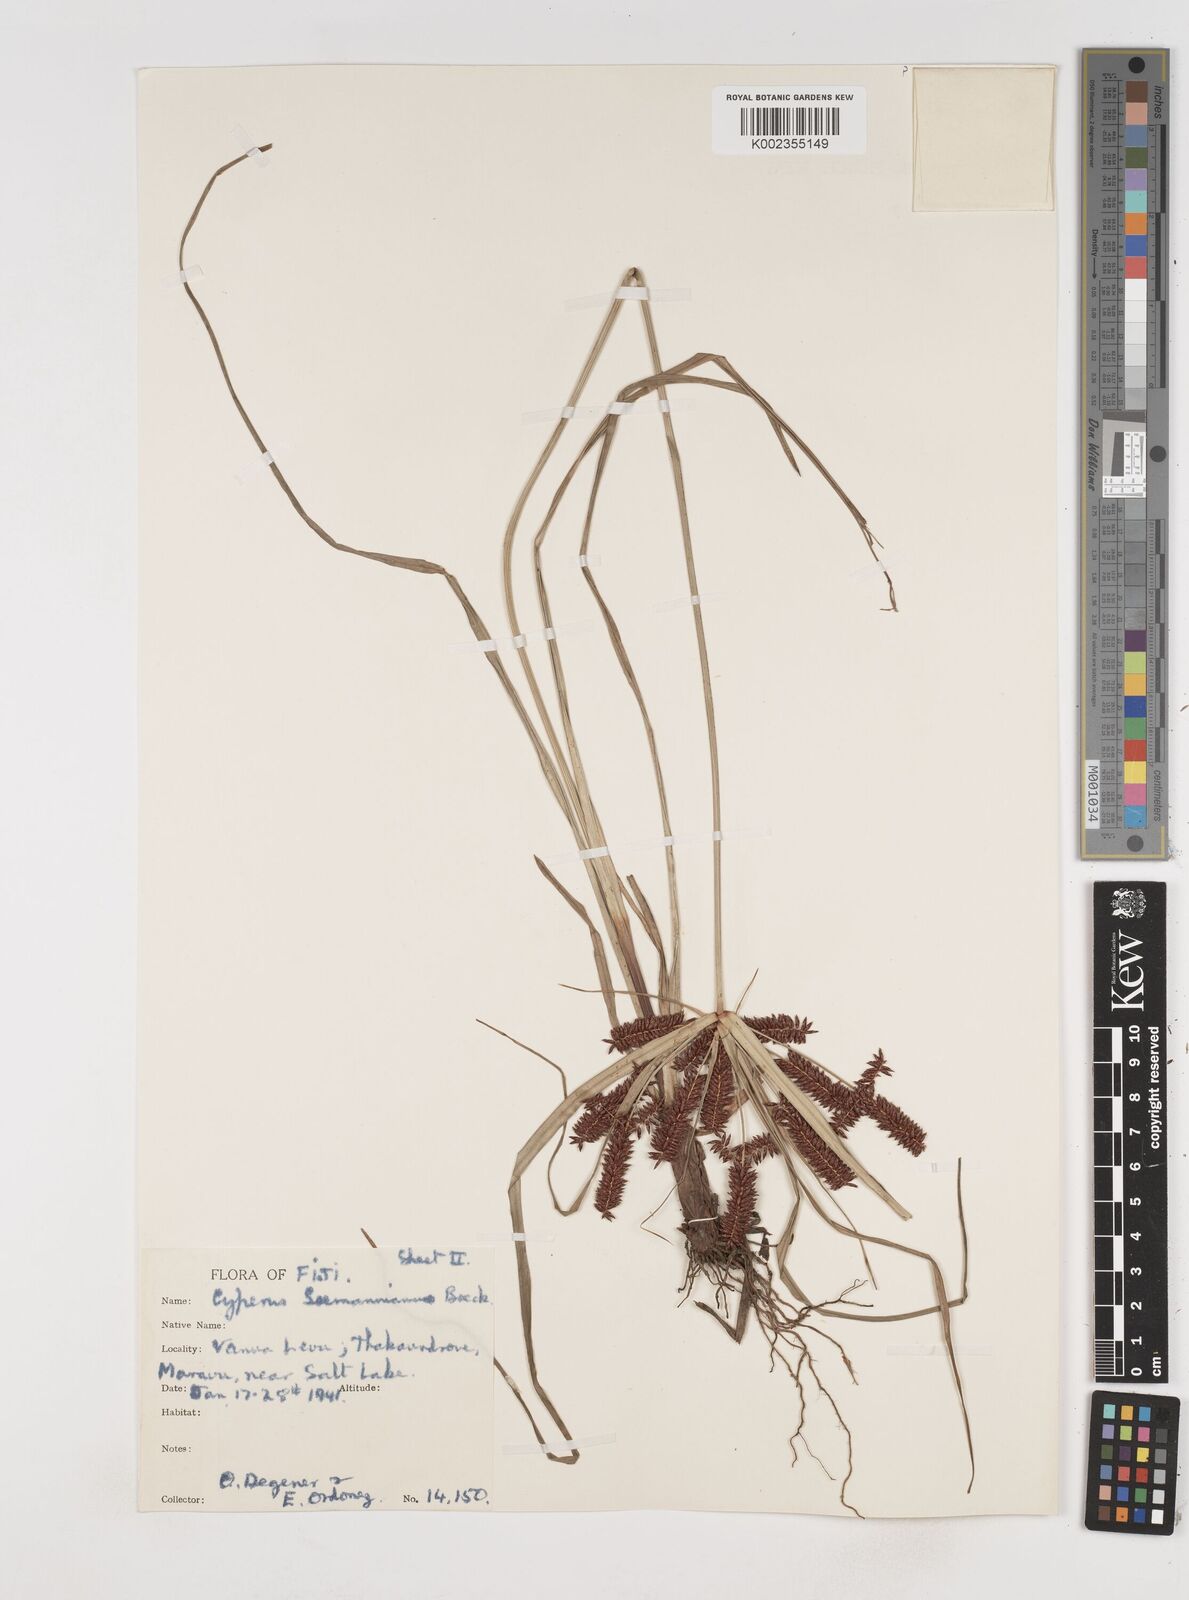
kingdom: Plantae
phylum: Tracheophyta
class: Liliopsida
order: Poales
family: Cyperaceae
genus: Cyperus
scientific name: Cyperus seemannianus
